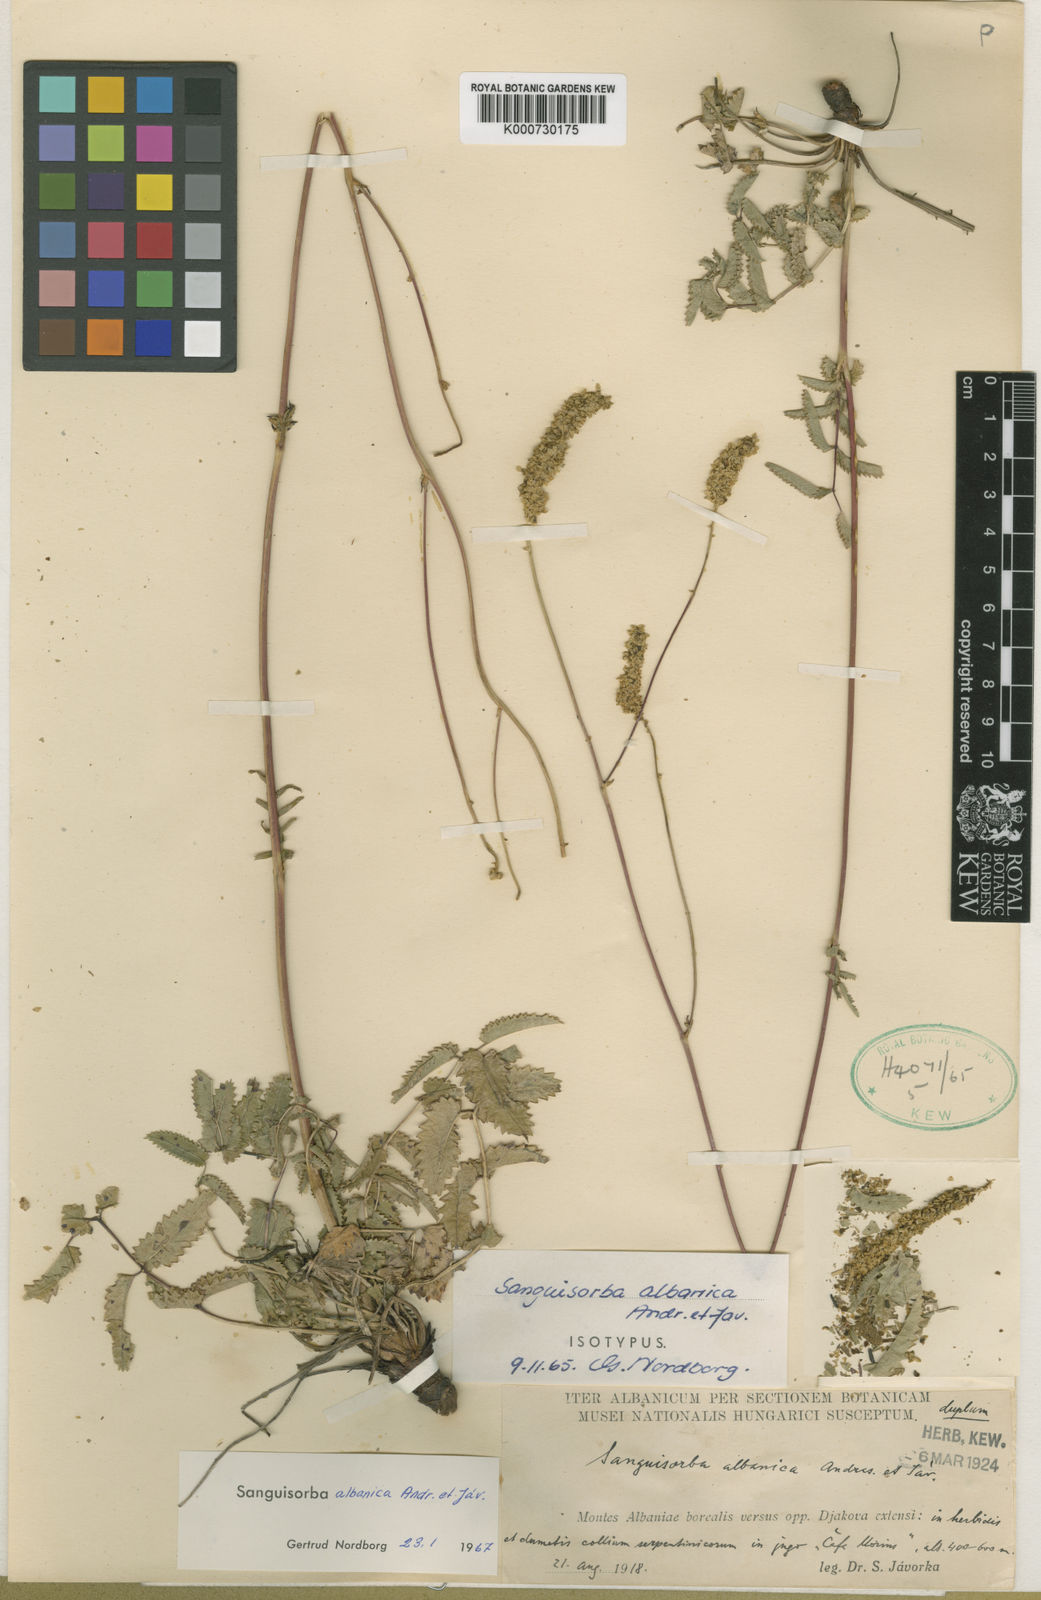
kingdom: Plantae
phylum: Tracheophyta
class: Magnoliopsida
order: Rosales
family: Rosaceae
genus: Sanguisorba
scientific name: Sanguisorba albanica
